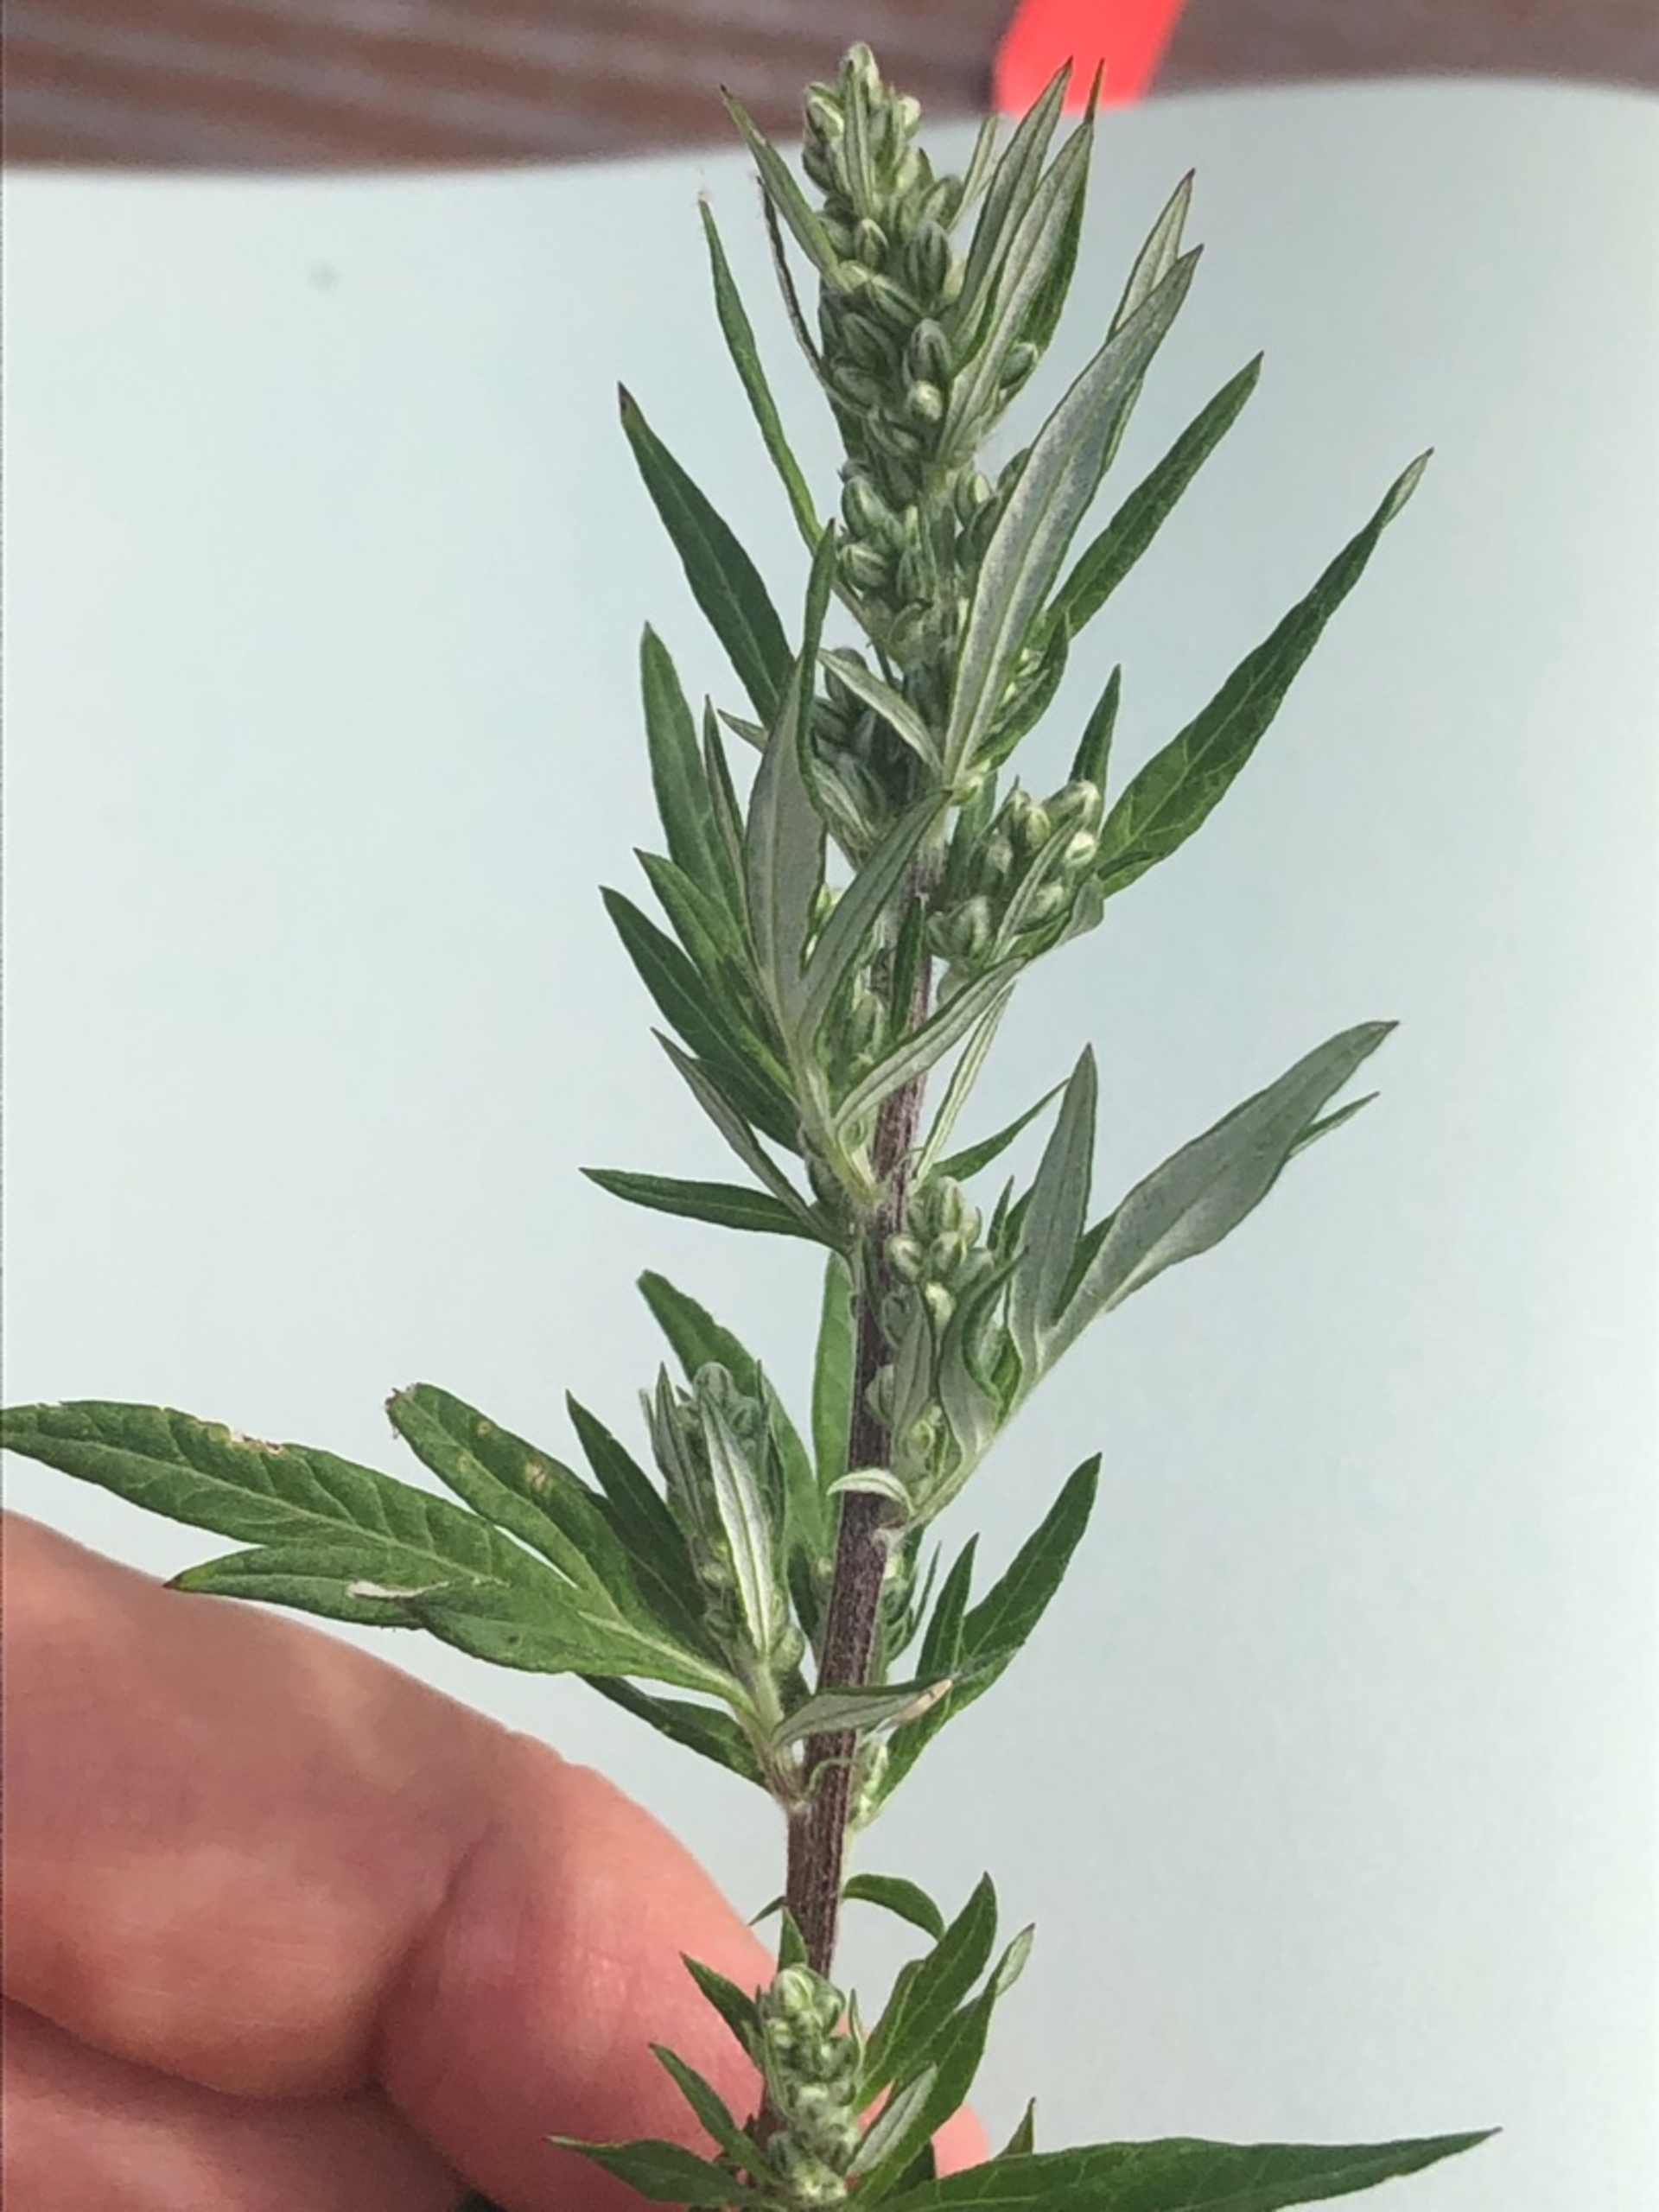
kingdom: Plantae
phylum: Tracheophyta
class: Magnoliopsida
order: Asterales
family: Asteraceae
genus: Artemisia
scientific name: Artemisia vulgaris
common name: Grå-bynke
